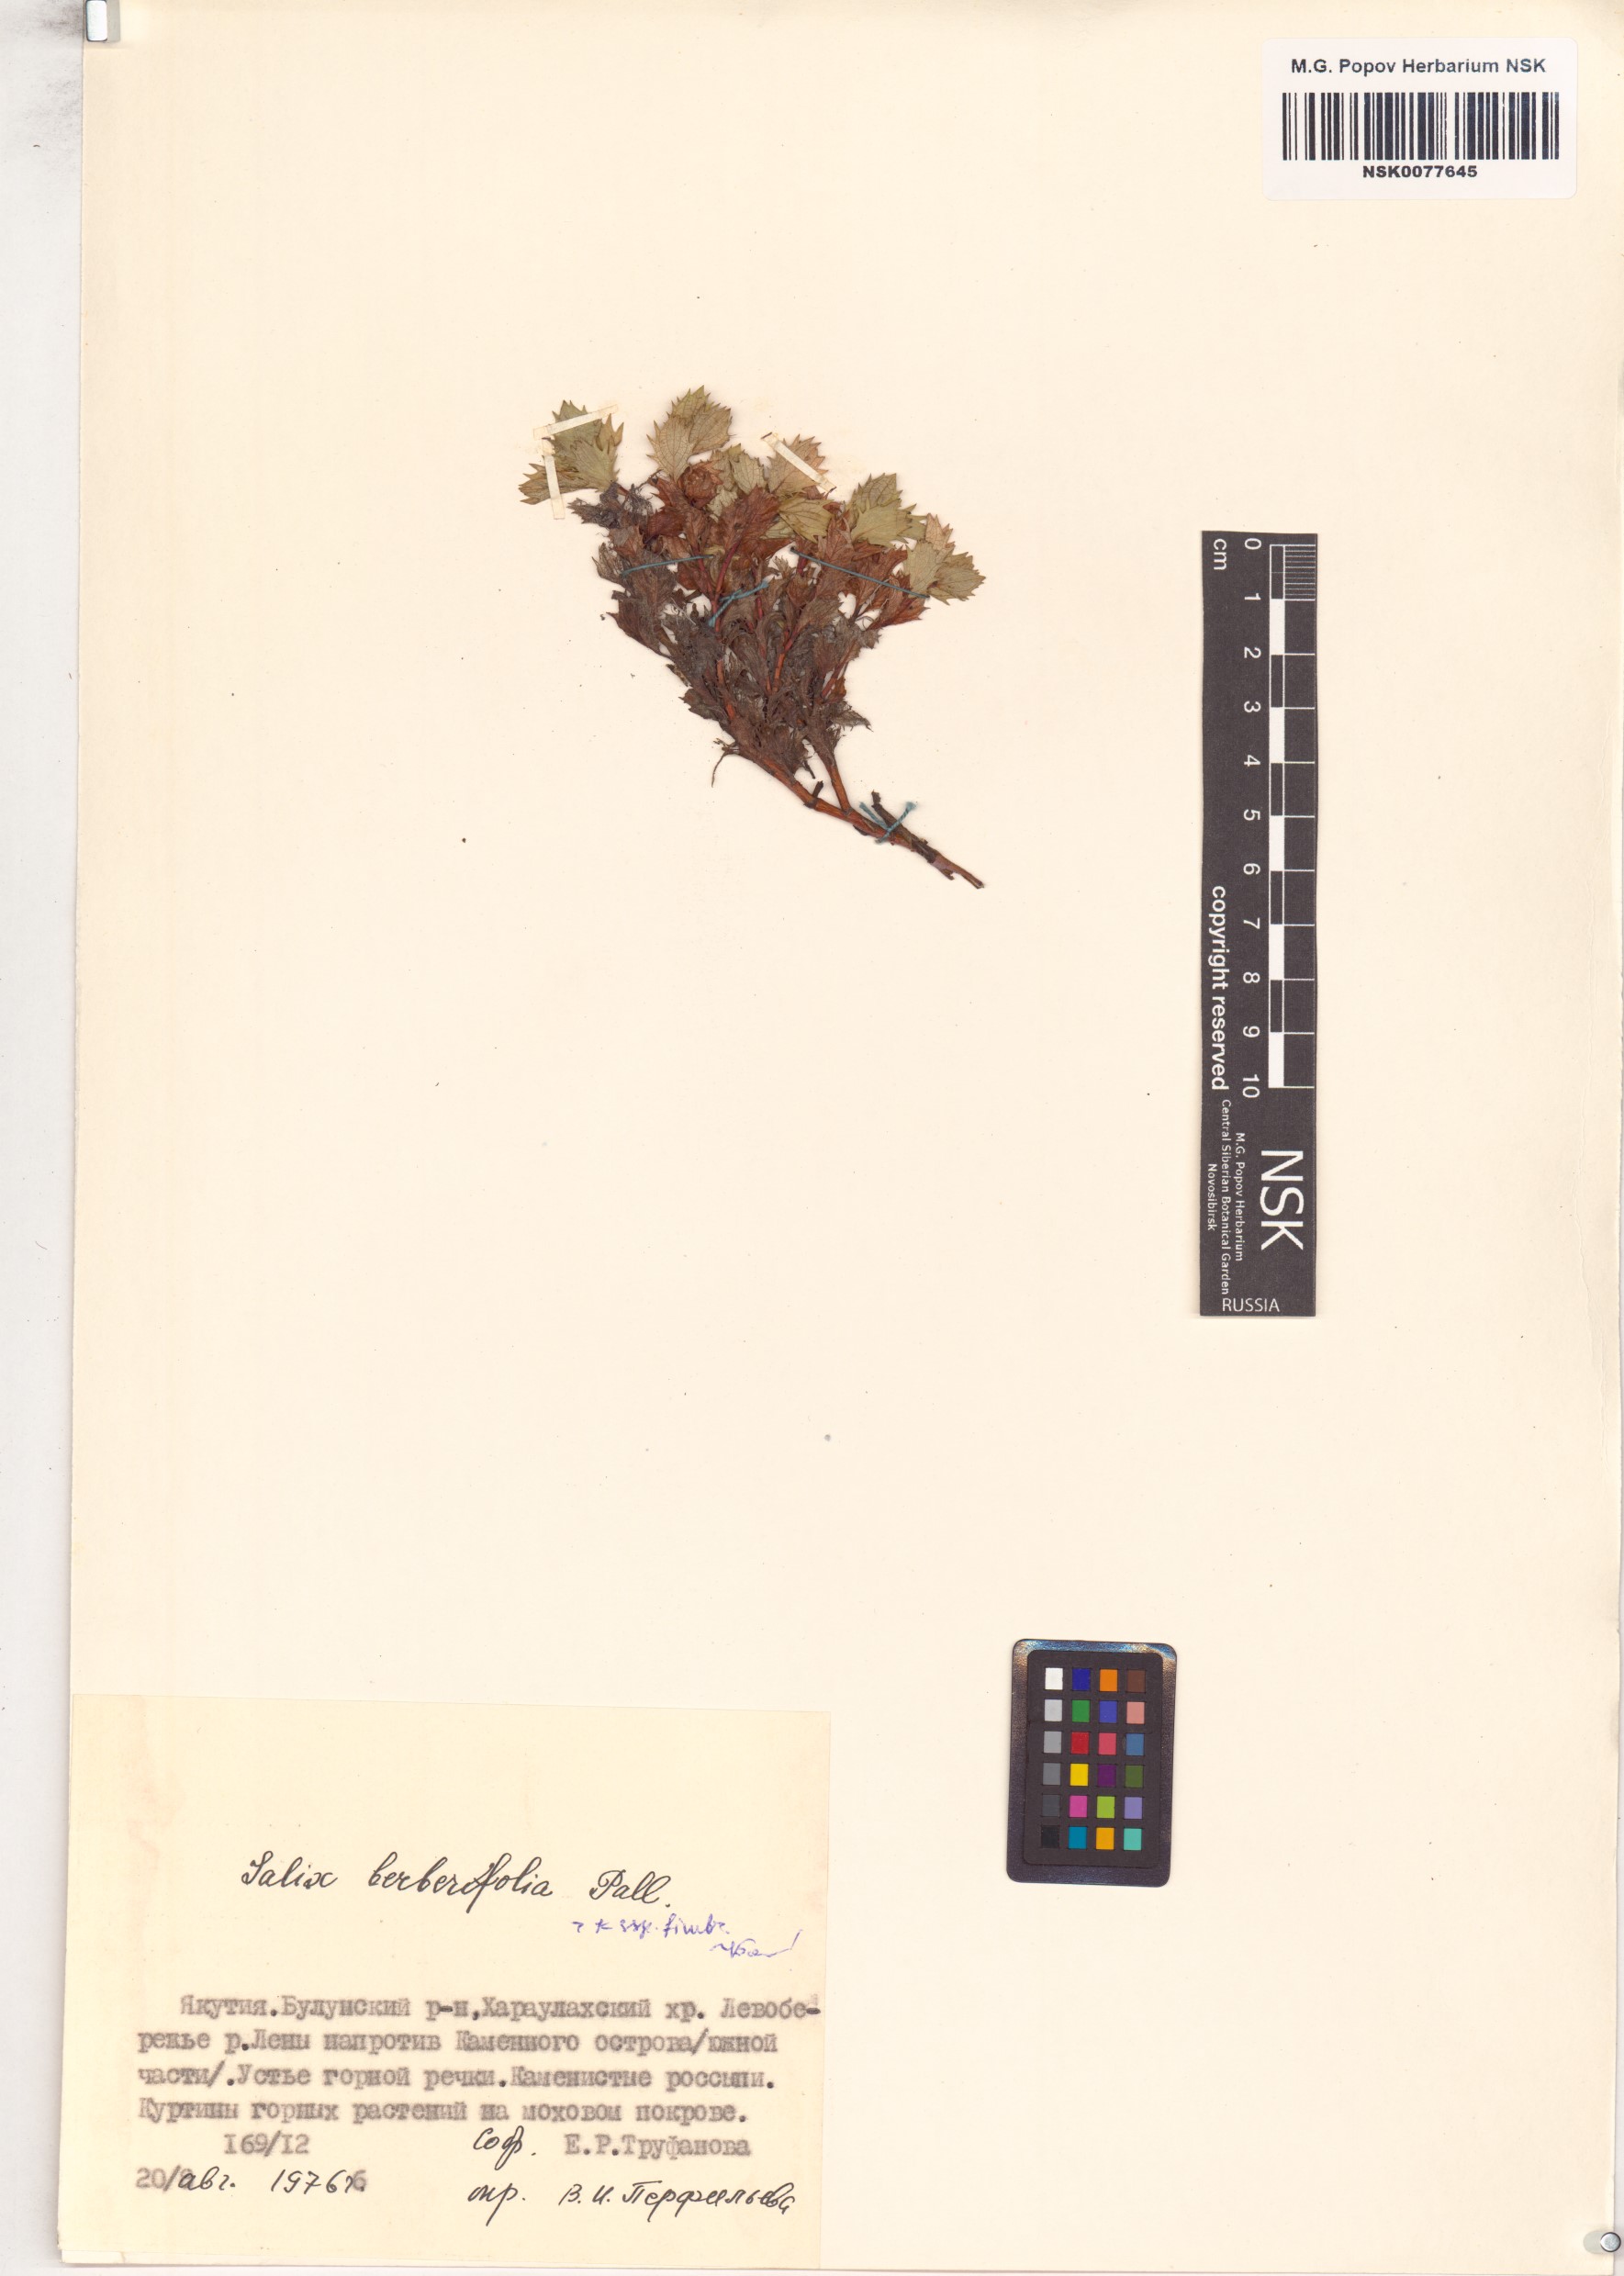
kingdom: Plantae
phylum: Tracheophyta
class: Magnoliopsida
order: Malpighiales
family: Salicaceae
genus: Salix
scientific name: Salix berberifolia
